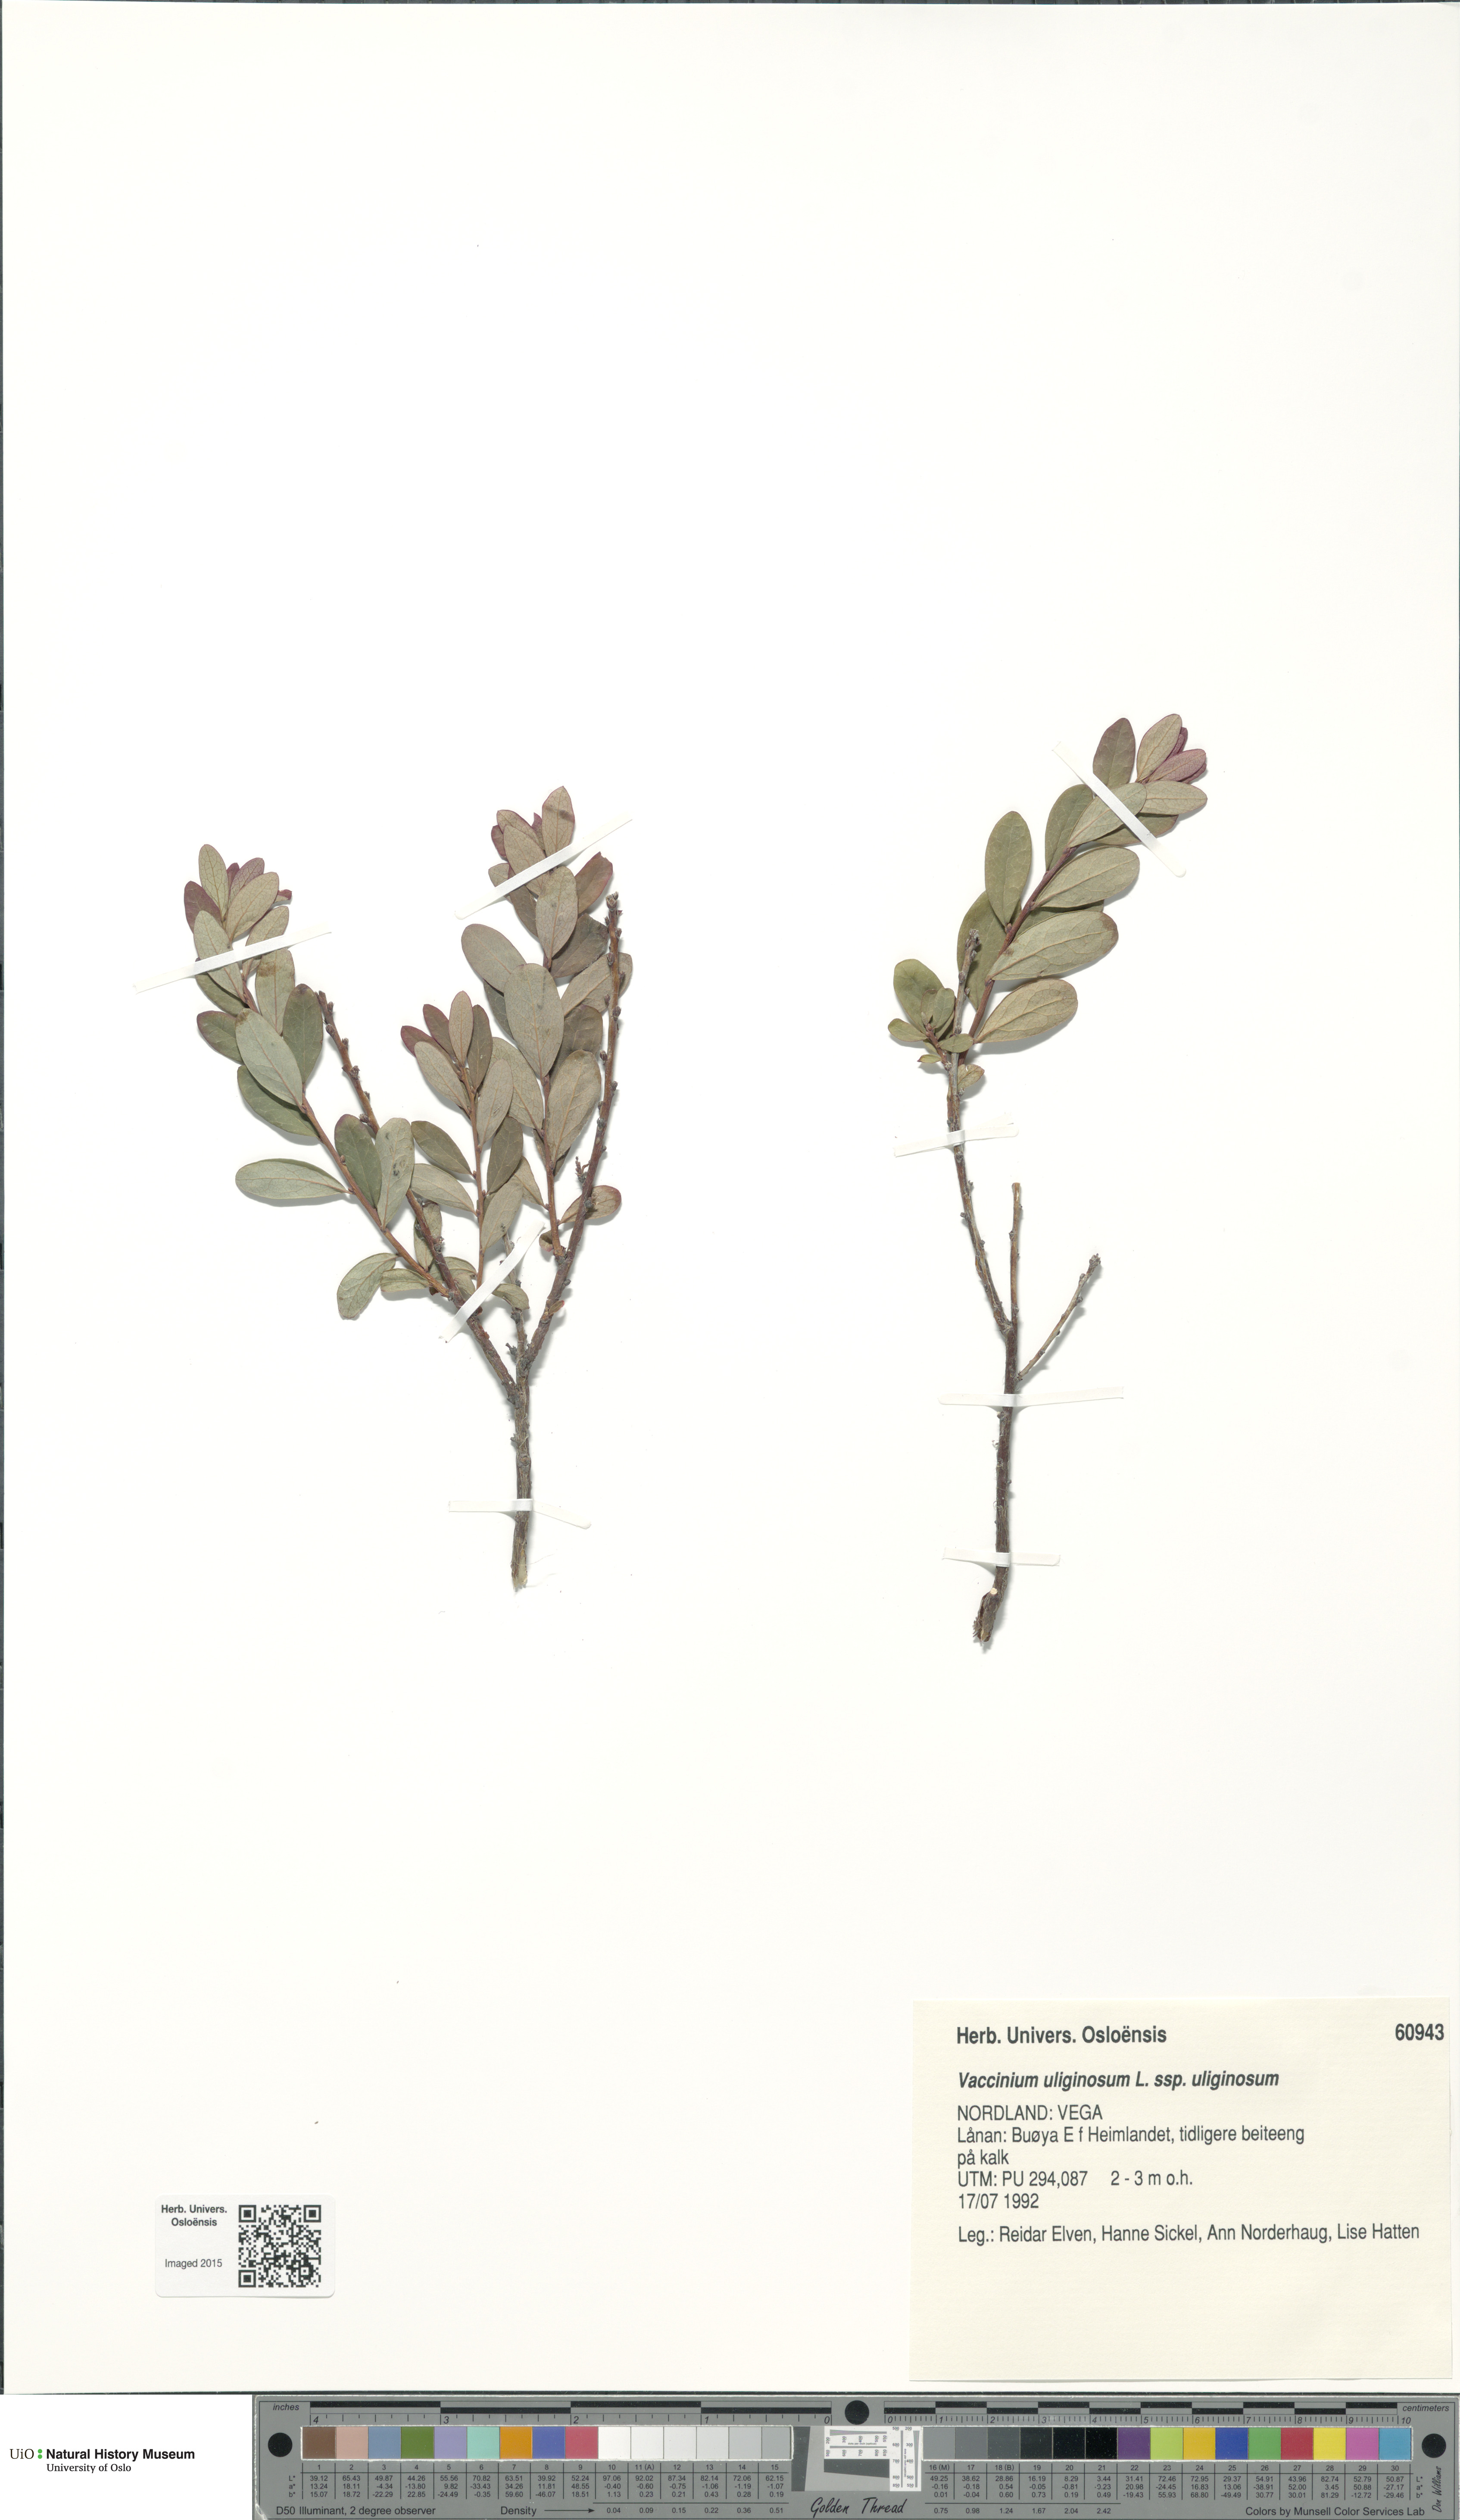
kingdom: Plantae
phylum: Tracheophyta
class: Magnoliopsida
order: Ericales
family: Ericaceae
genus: Vaccinium
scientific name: Vaccinium uliginosum
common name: Bog bilberry
